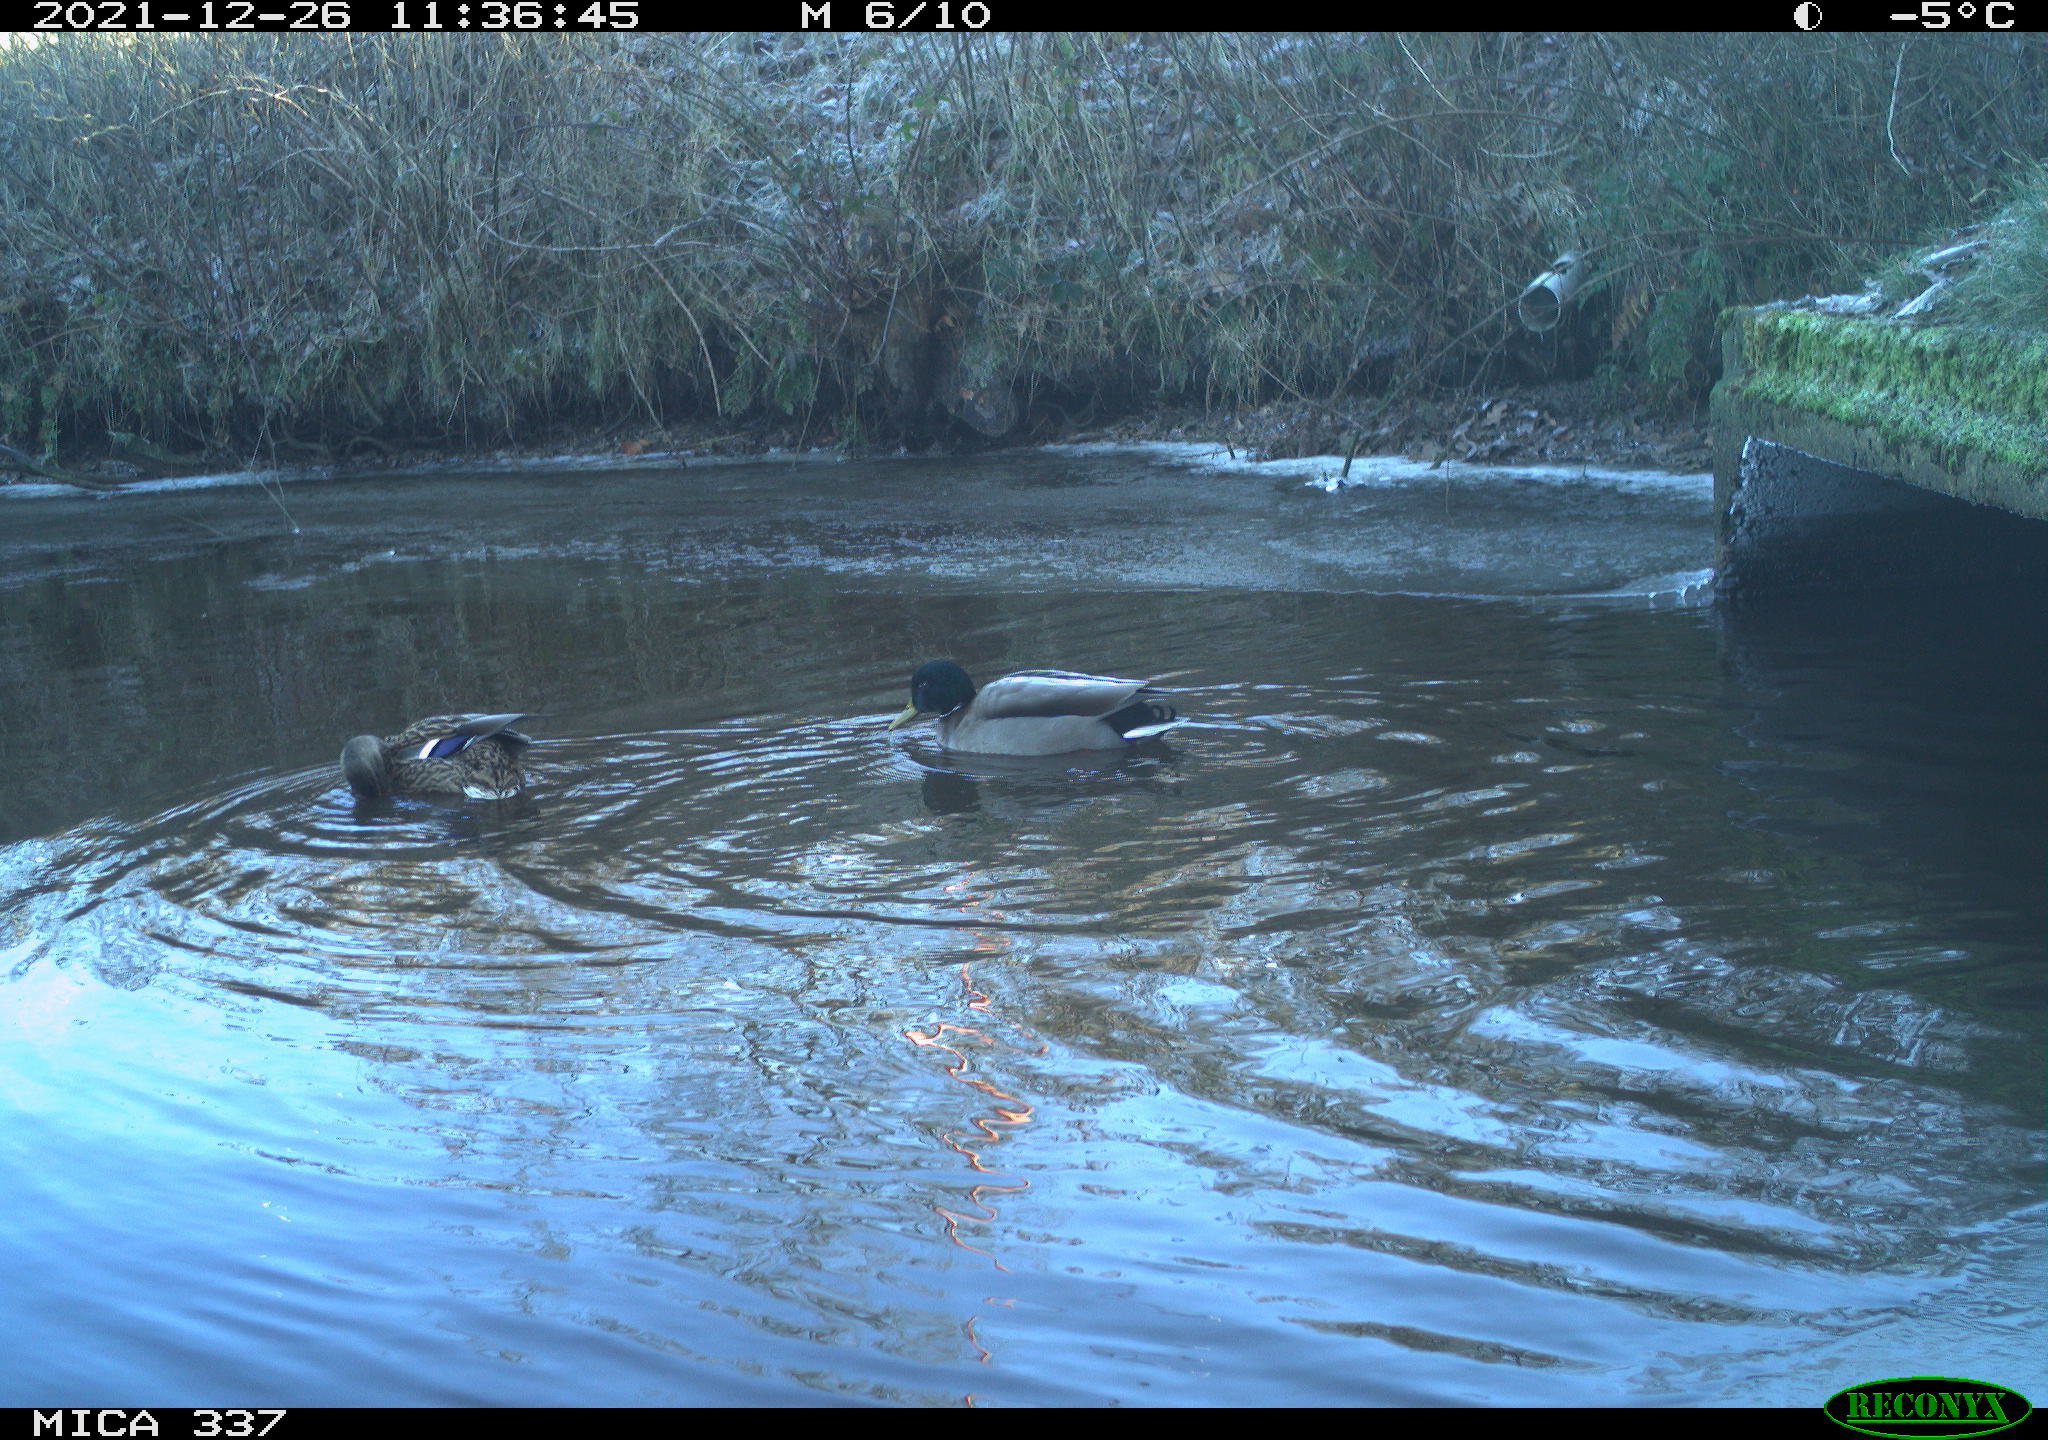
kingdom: Animalia
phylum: Chordata
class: Aves
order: Anseriformes
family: Anatidae
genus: Anas
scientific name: Anas platyrhynchos
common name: Mallard
